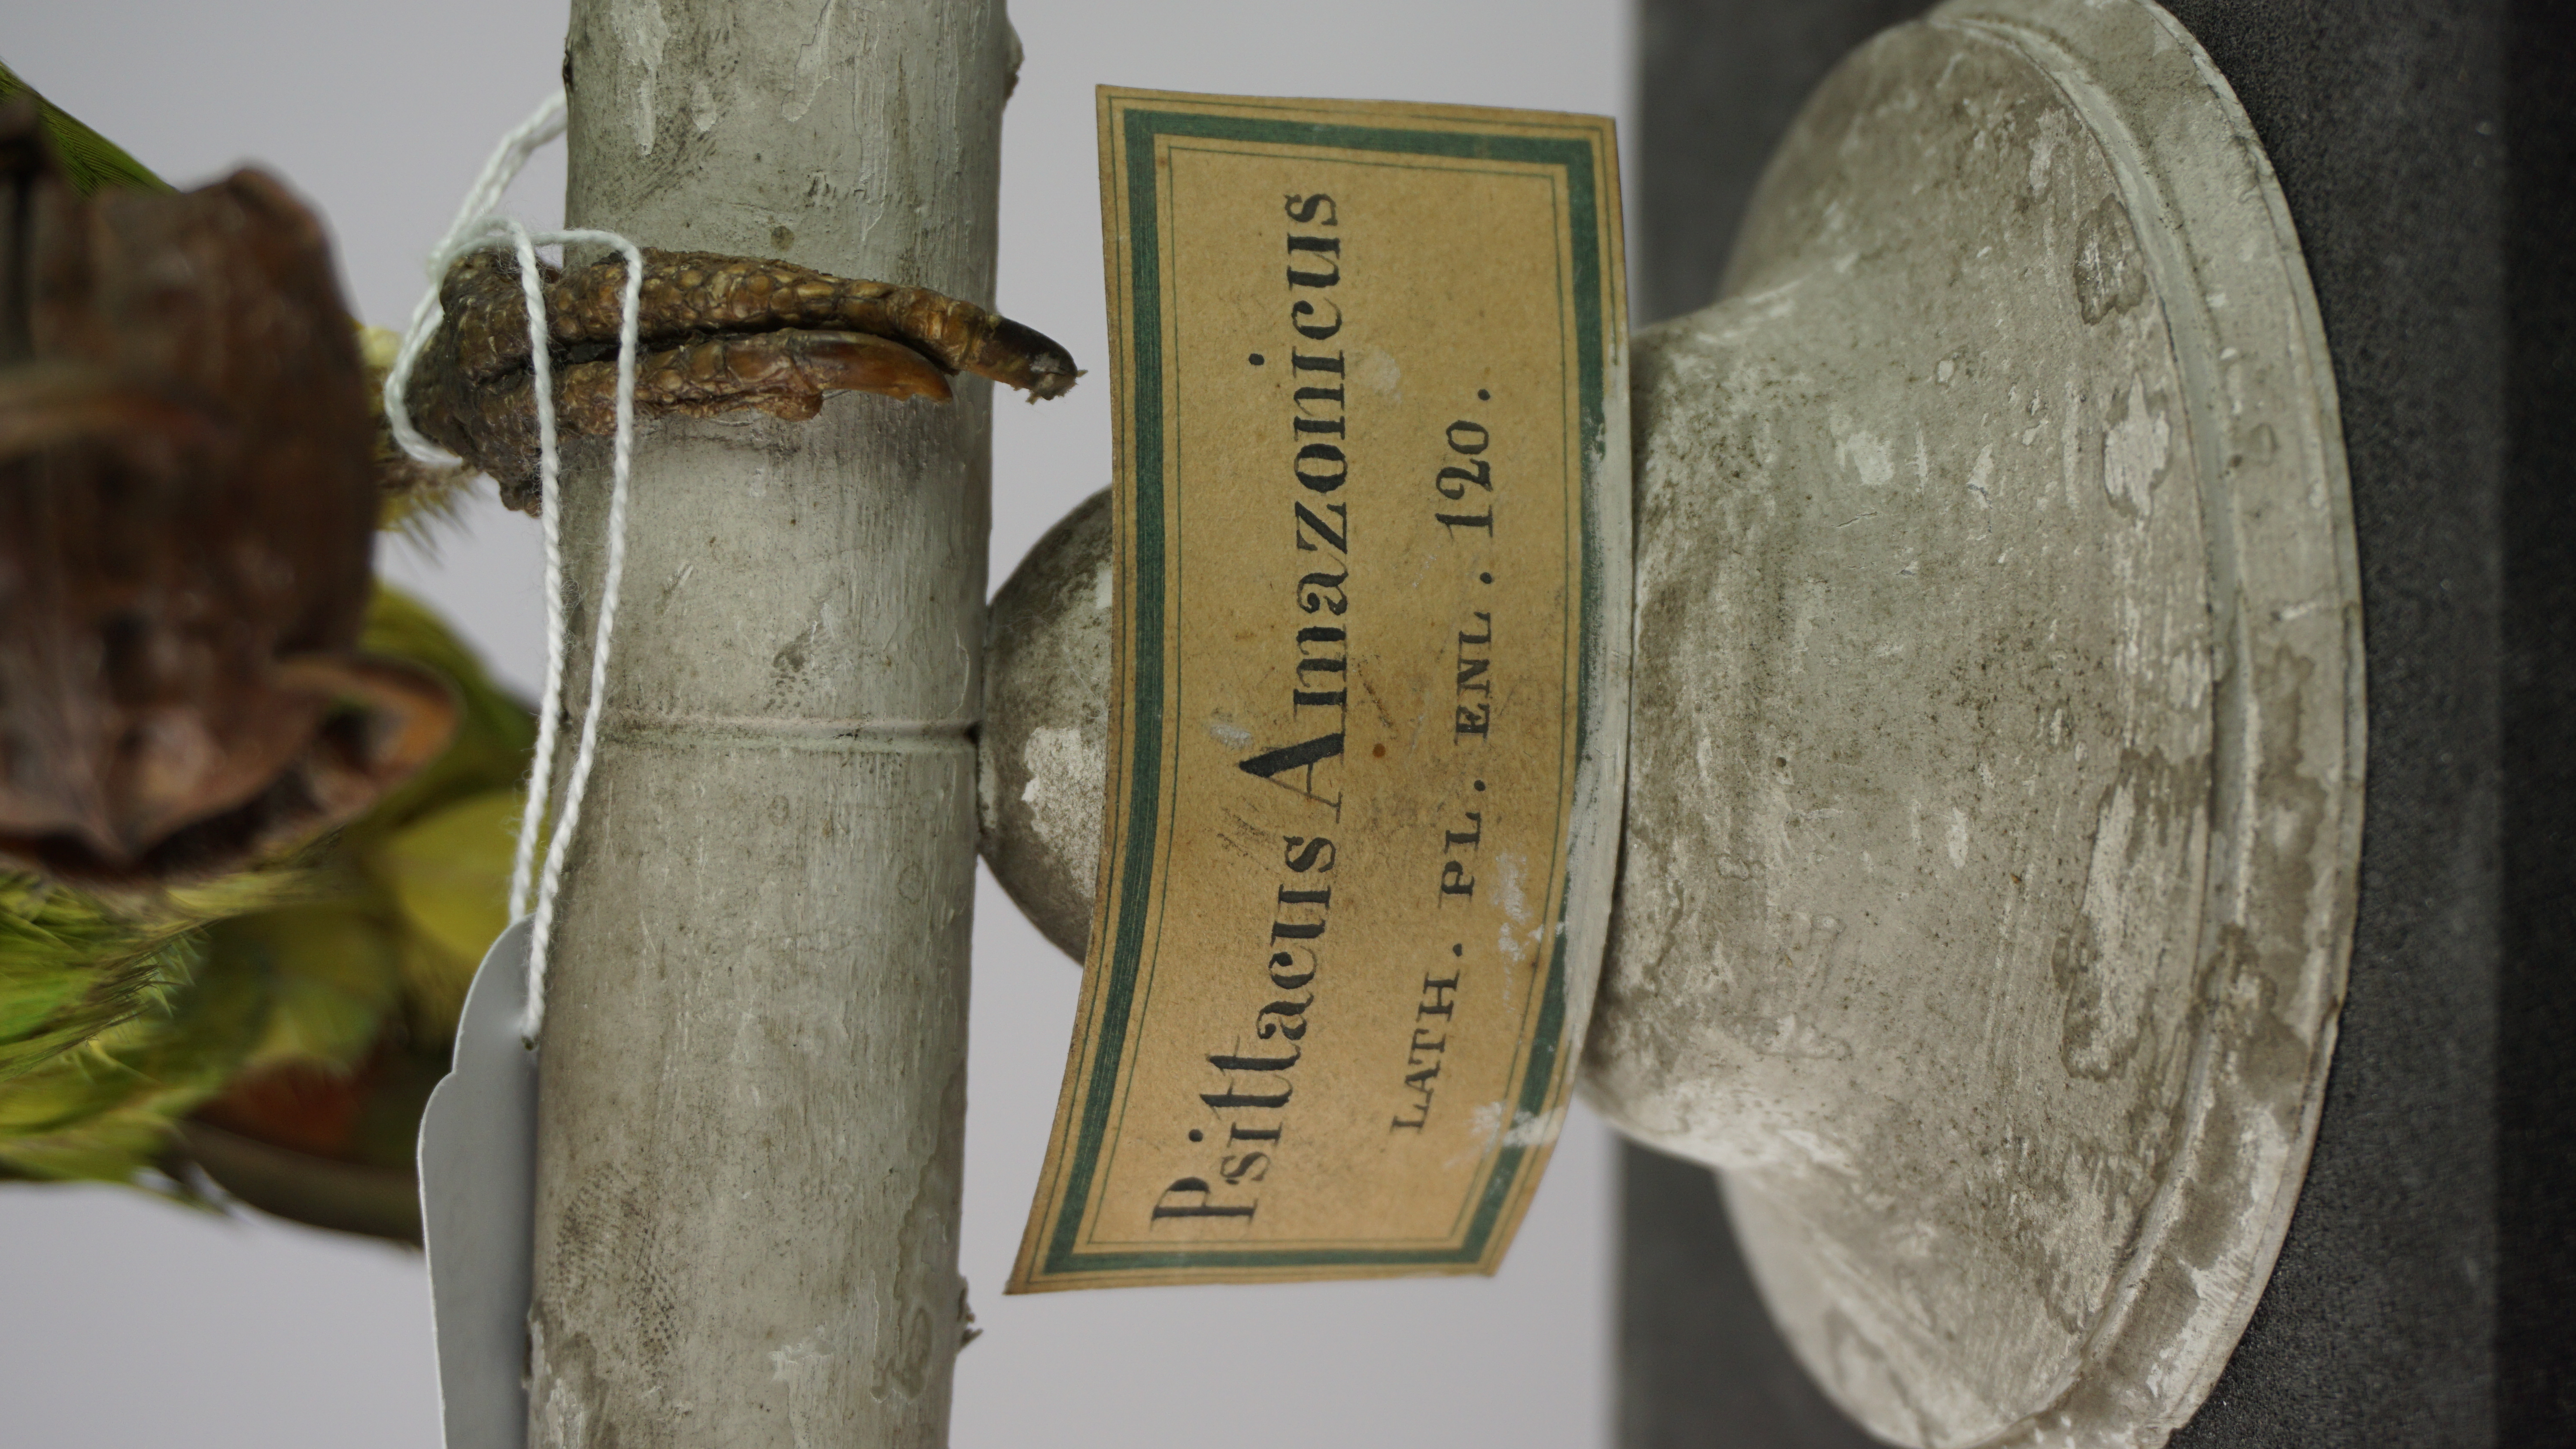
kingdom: Animalia
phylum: Chordata
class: Aves
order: Psittaciformes
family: Psittacidae
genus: Amazona
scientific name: Amazona aestiva
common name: Turquoise-fronted amazon
